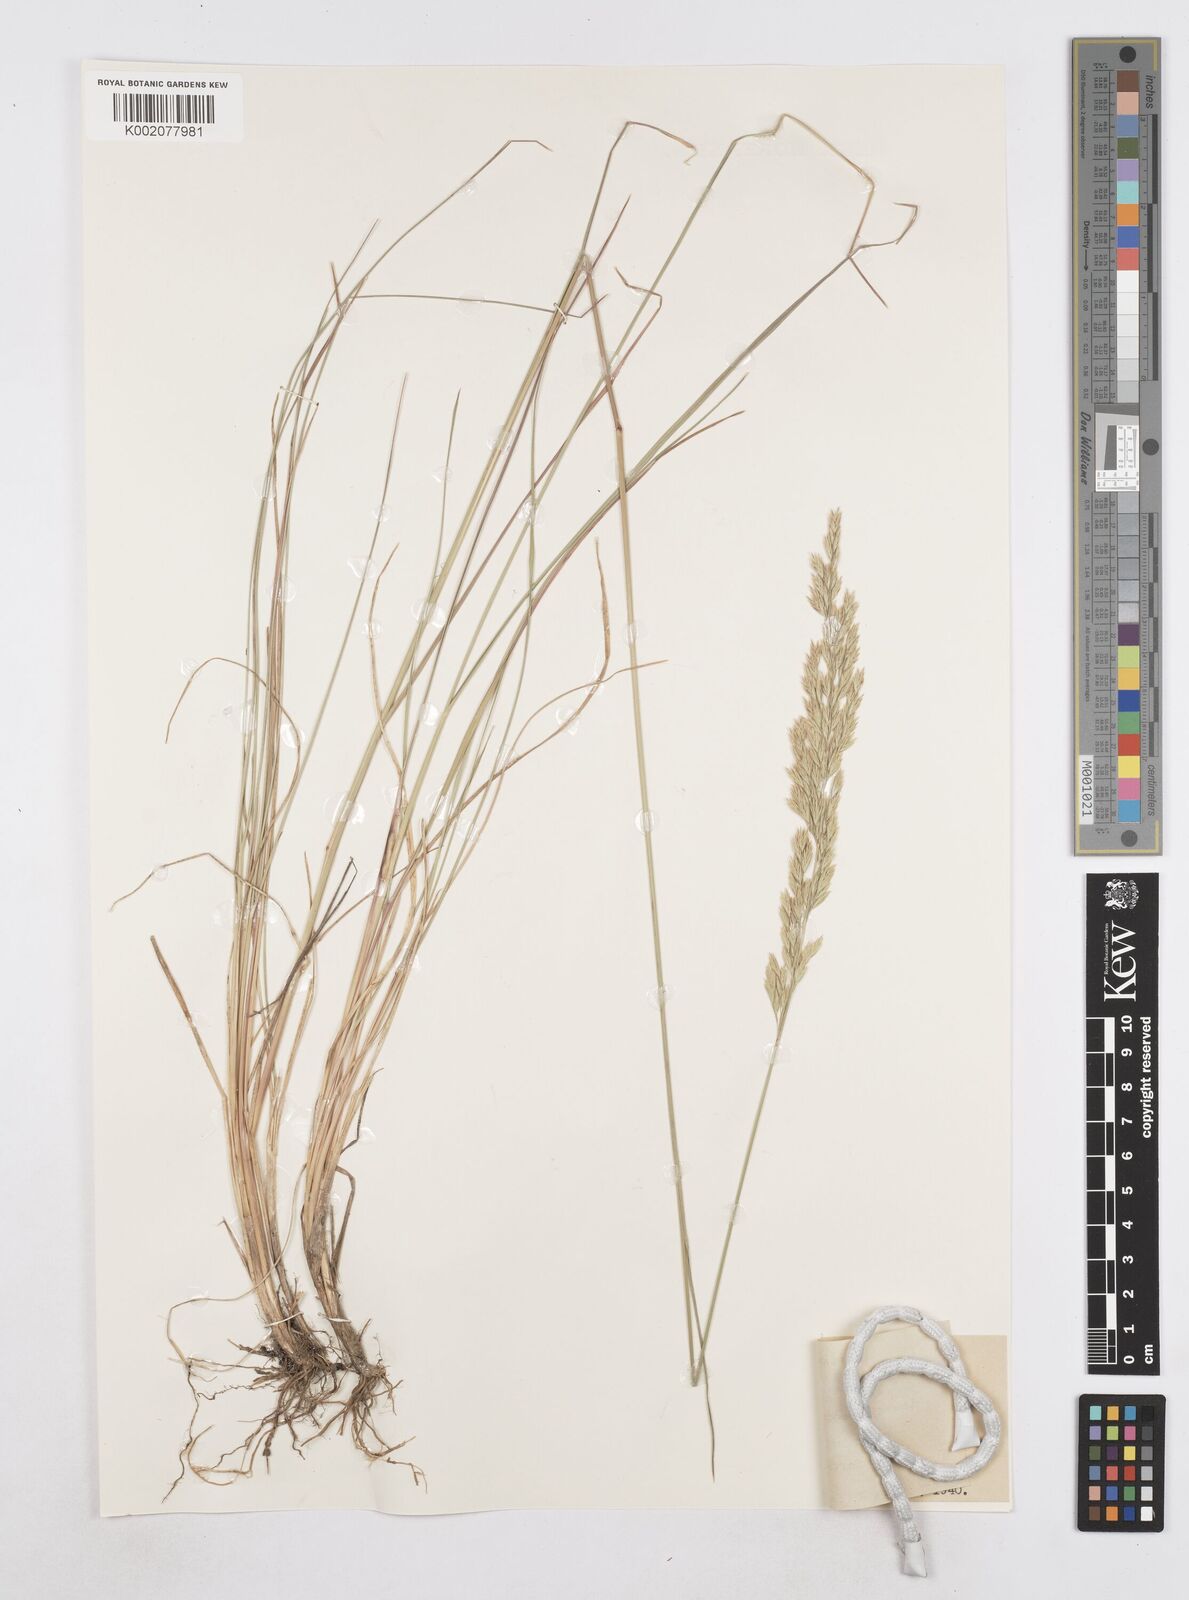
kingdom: Plantae
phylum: Tracheophyta
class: Liliopsida
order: Poales
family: Poaceae
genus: Poa
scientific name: Poa arida
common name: Plains bluegrass
